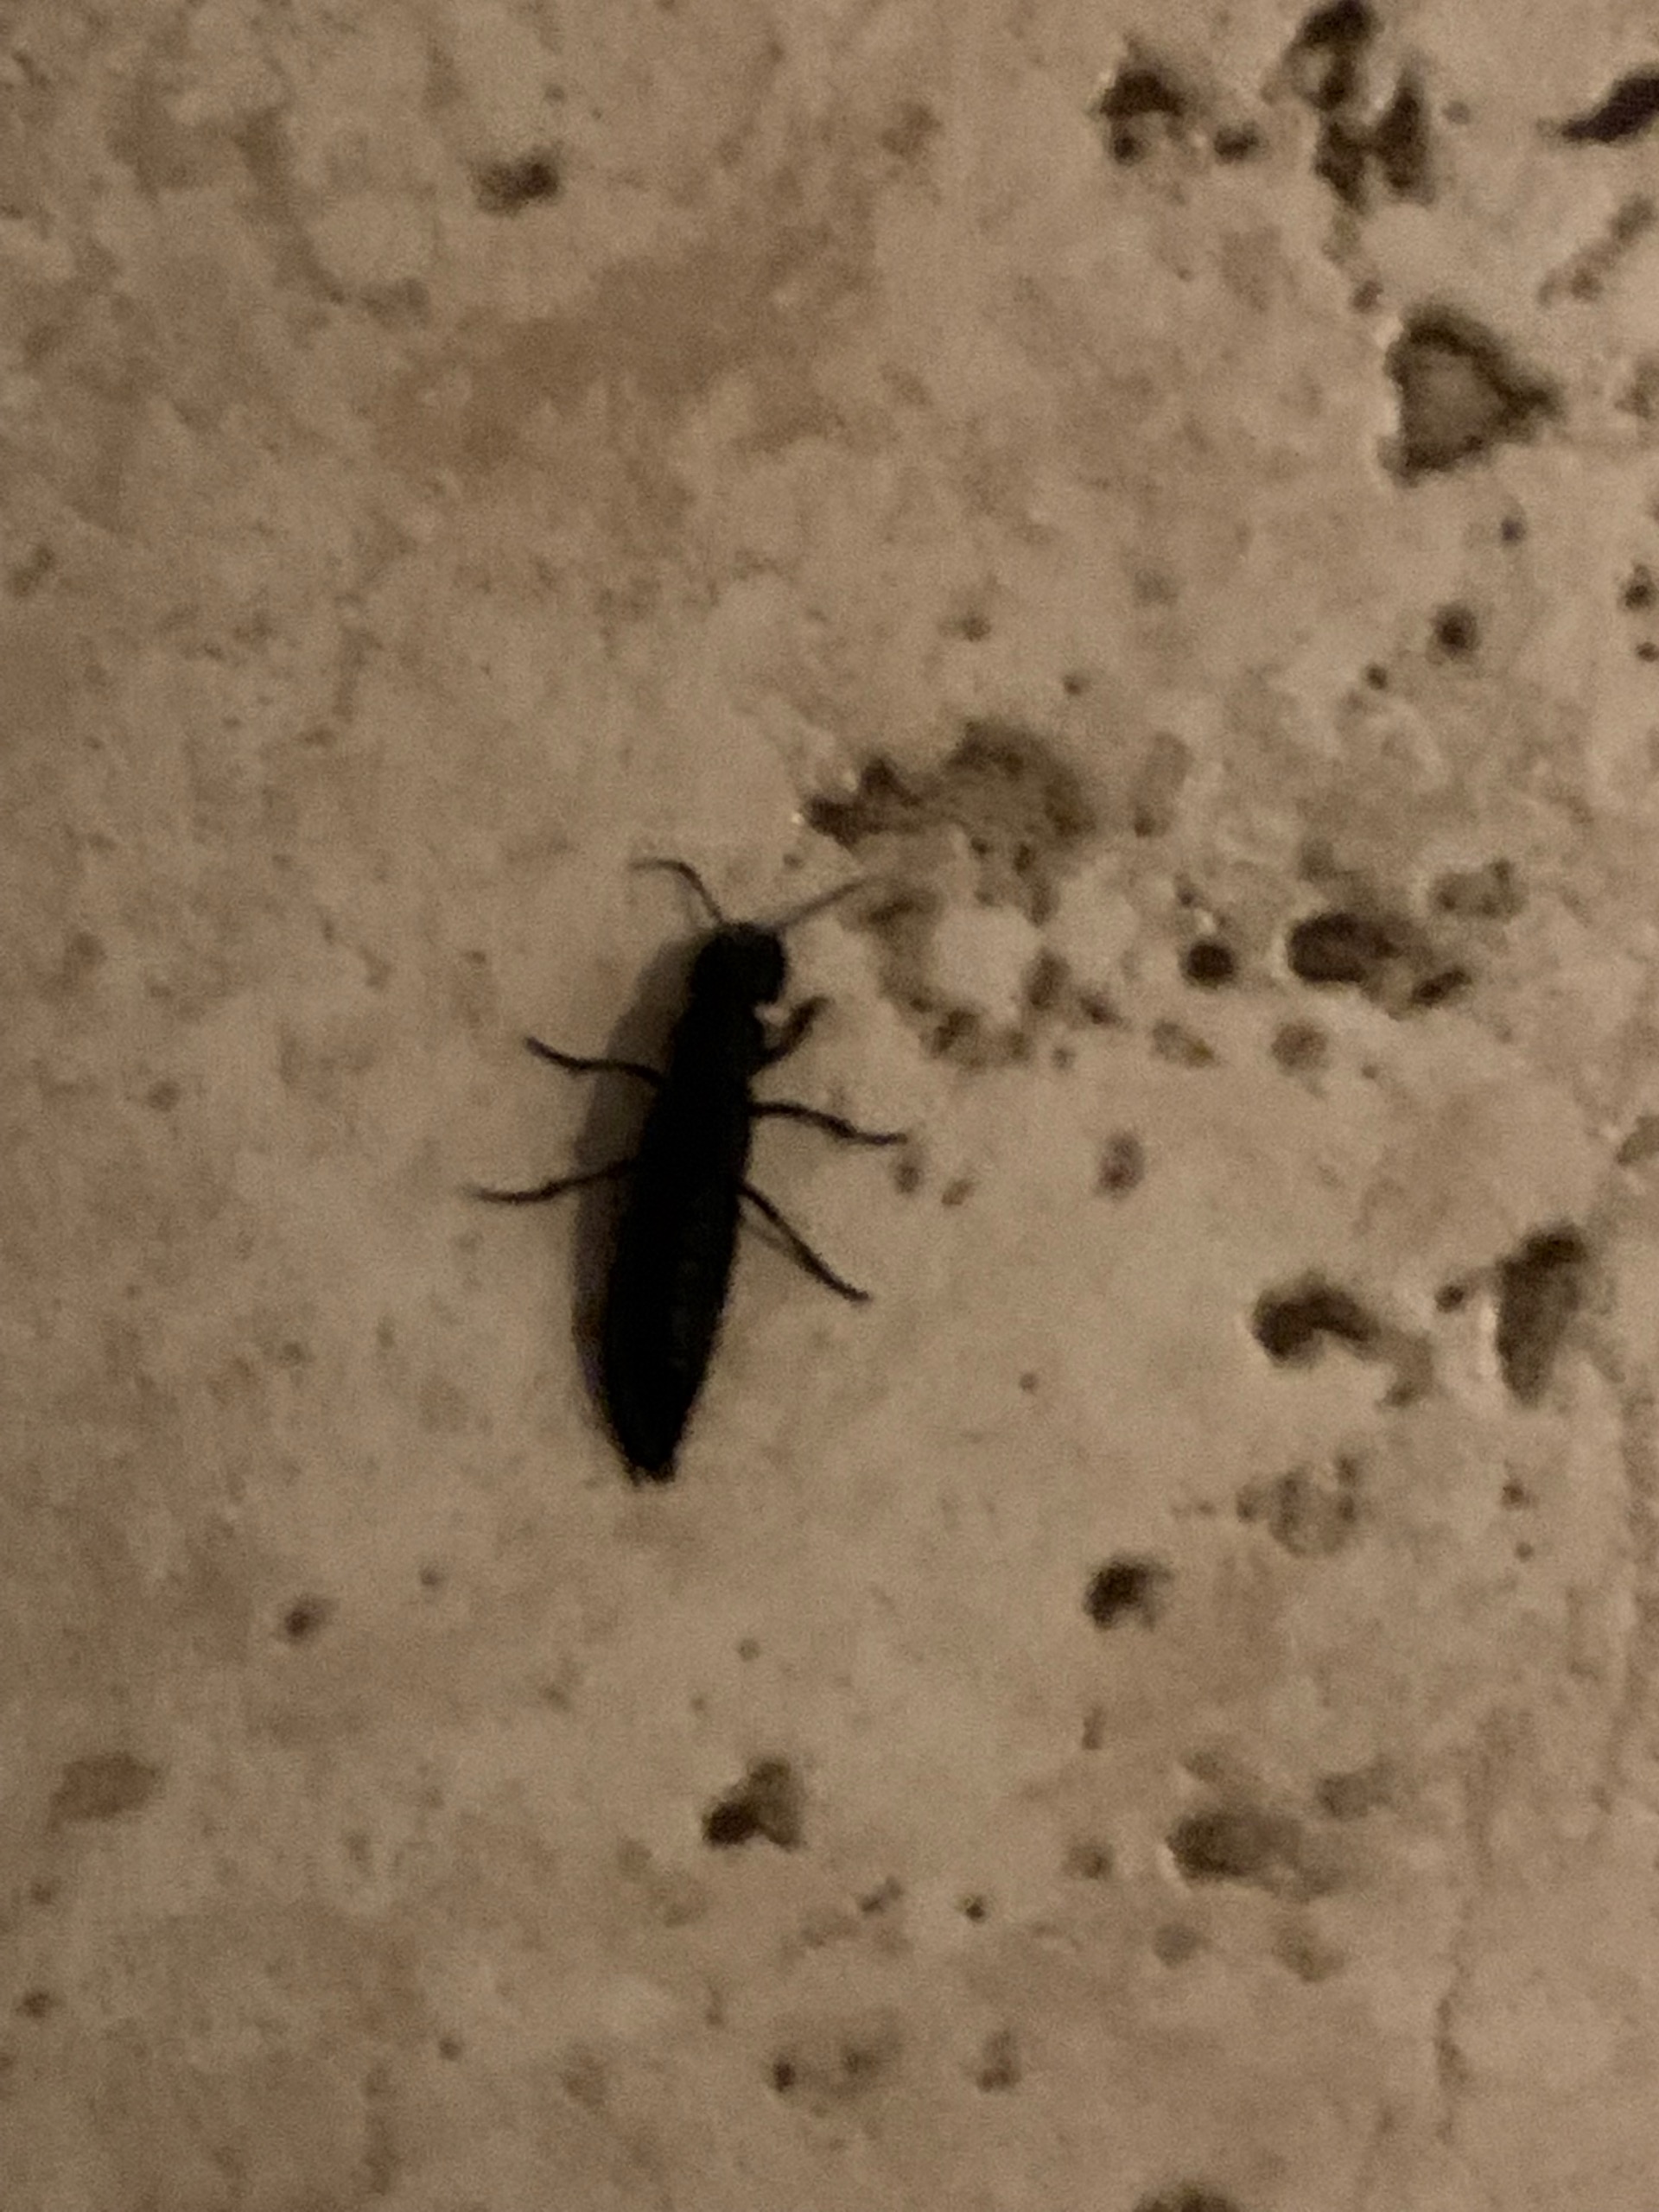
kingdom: Animalia
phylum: Arthropoda
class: Insecta
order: Coleoptera
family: Staphylinidae
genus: Ocypus
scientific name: Ocypus olens
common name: Stor rovbille
